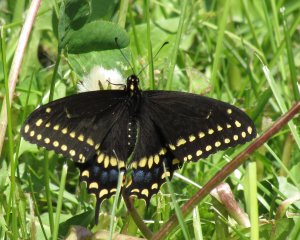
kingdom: Animalia
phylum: Arthropoda
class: Insecta
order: Lepidoptera
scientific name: Lepidoptera
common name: Butterflies
